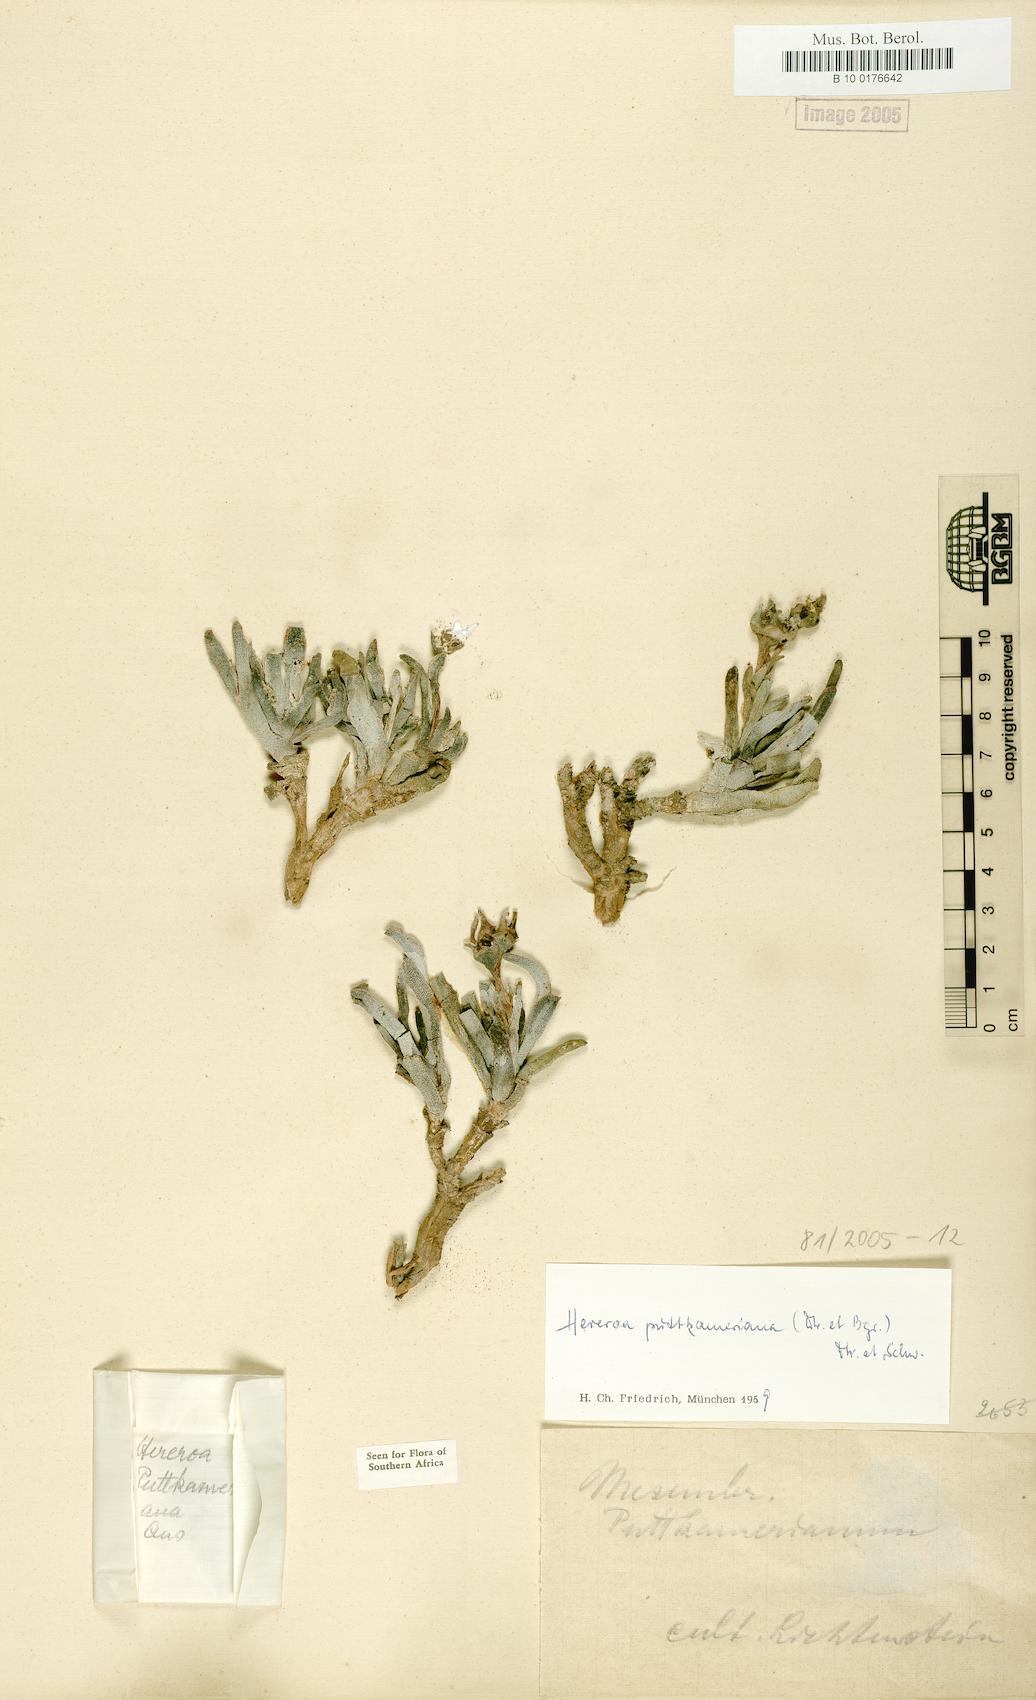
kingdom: Plantae
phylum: Tracheophyta
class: Magnoliopsida
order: Caryophyllales
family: Aizoaceae
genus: Dracophilus
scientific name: Dracophilus Hereroa puttkameriana
